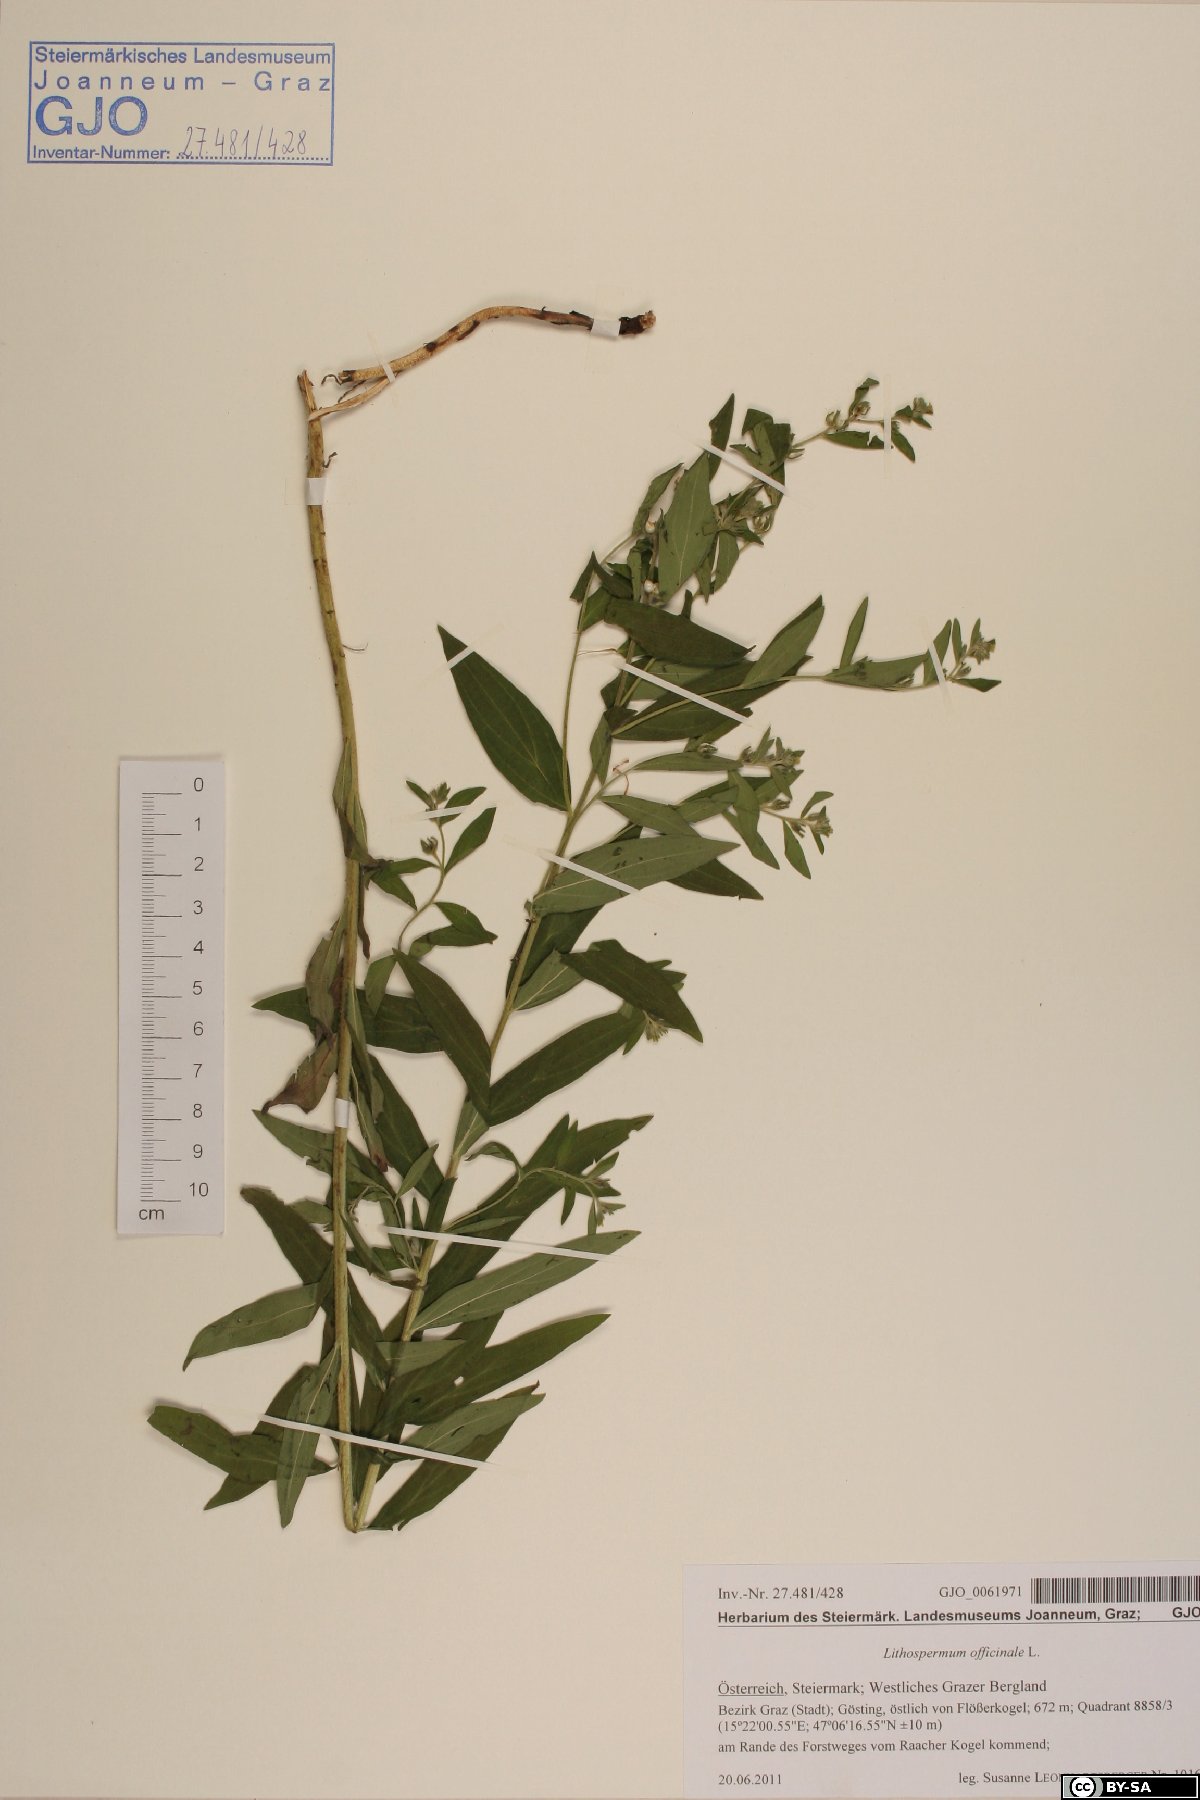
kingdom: Plantae
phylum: Tracheophyta
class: Magnoliopsida
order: Boraginales
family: Boraginaceae
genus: Lithospermum
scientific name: Lithospermum officinale
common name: Common gromwell
